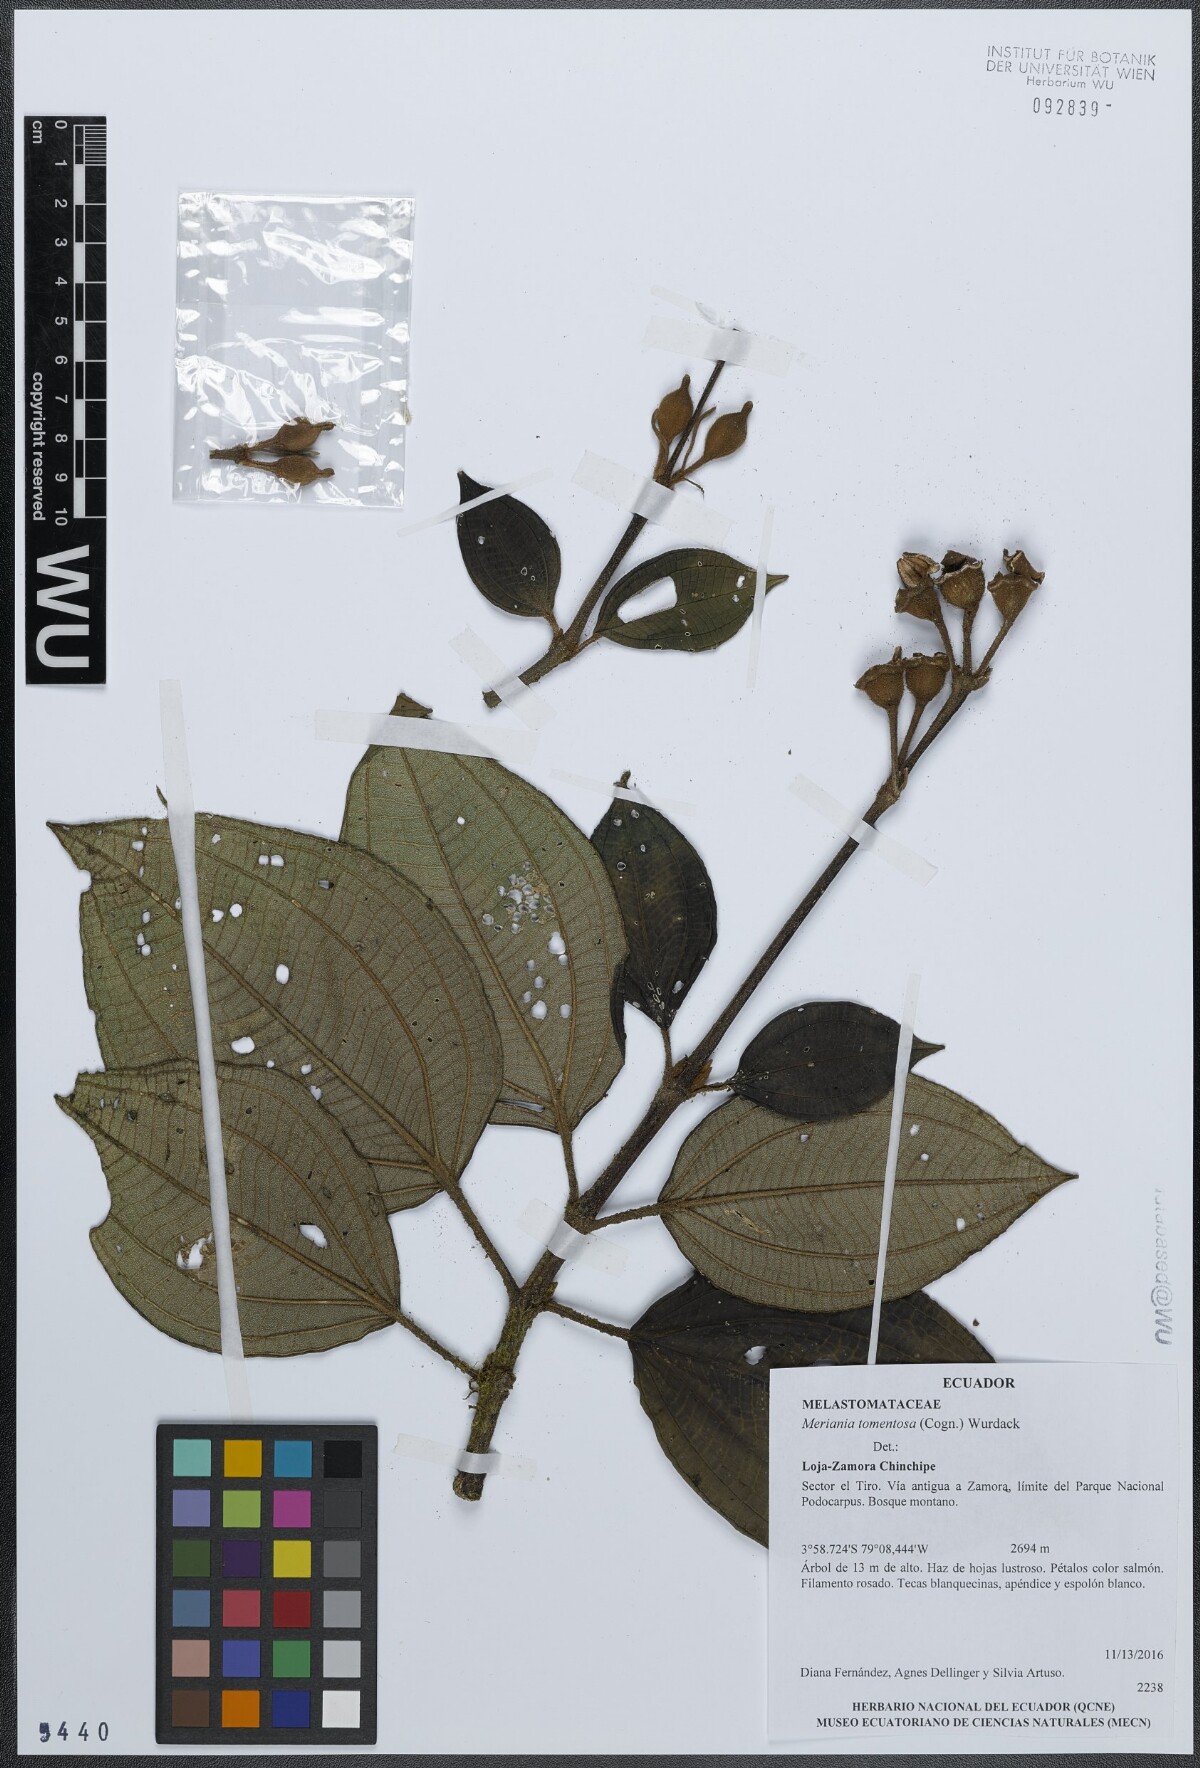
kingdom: Plantae
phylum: Tracheophyta
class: Magnoliopsida
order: Myrtales
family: Melastomataceae
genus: Meriania
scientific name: Meriania tomentosa
